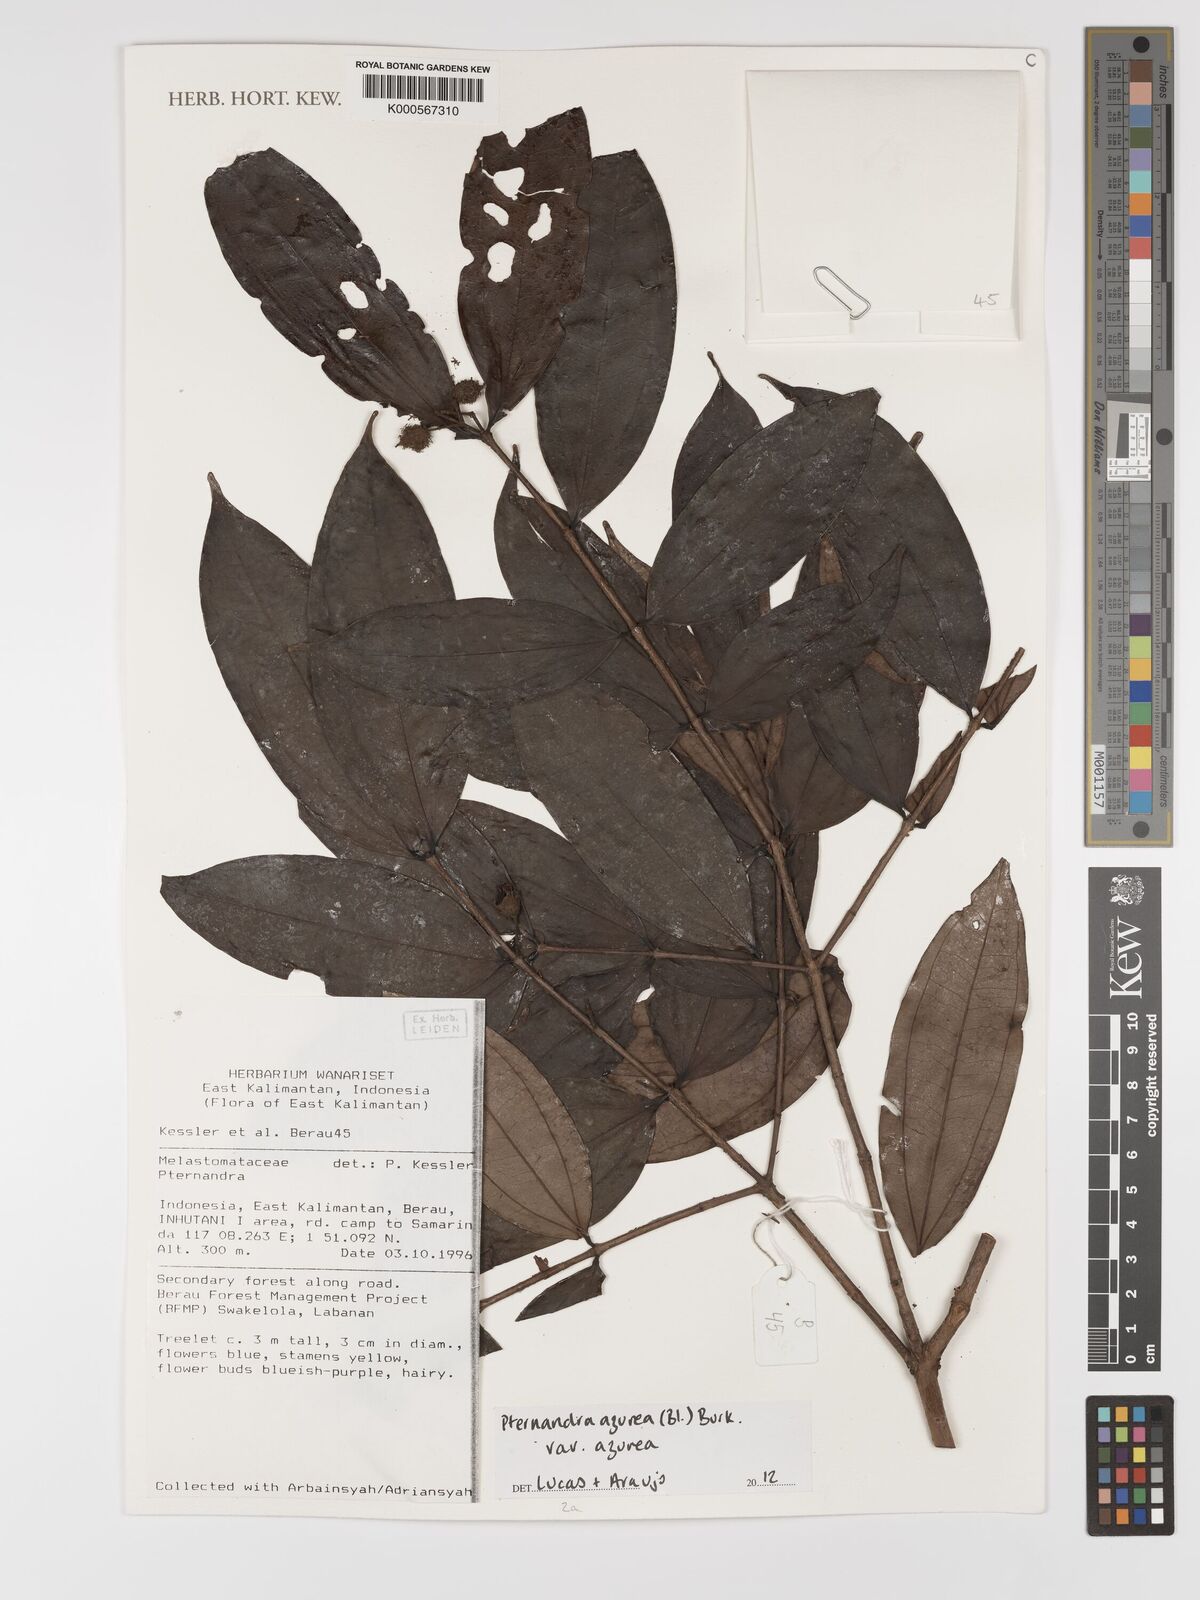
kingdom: Plantae
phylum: Tracheophyta
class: Magnoliopsida
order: Myrtales
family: Melastomataceae
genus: Pternandra
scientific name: Pternandra azurea
